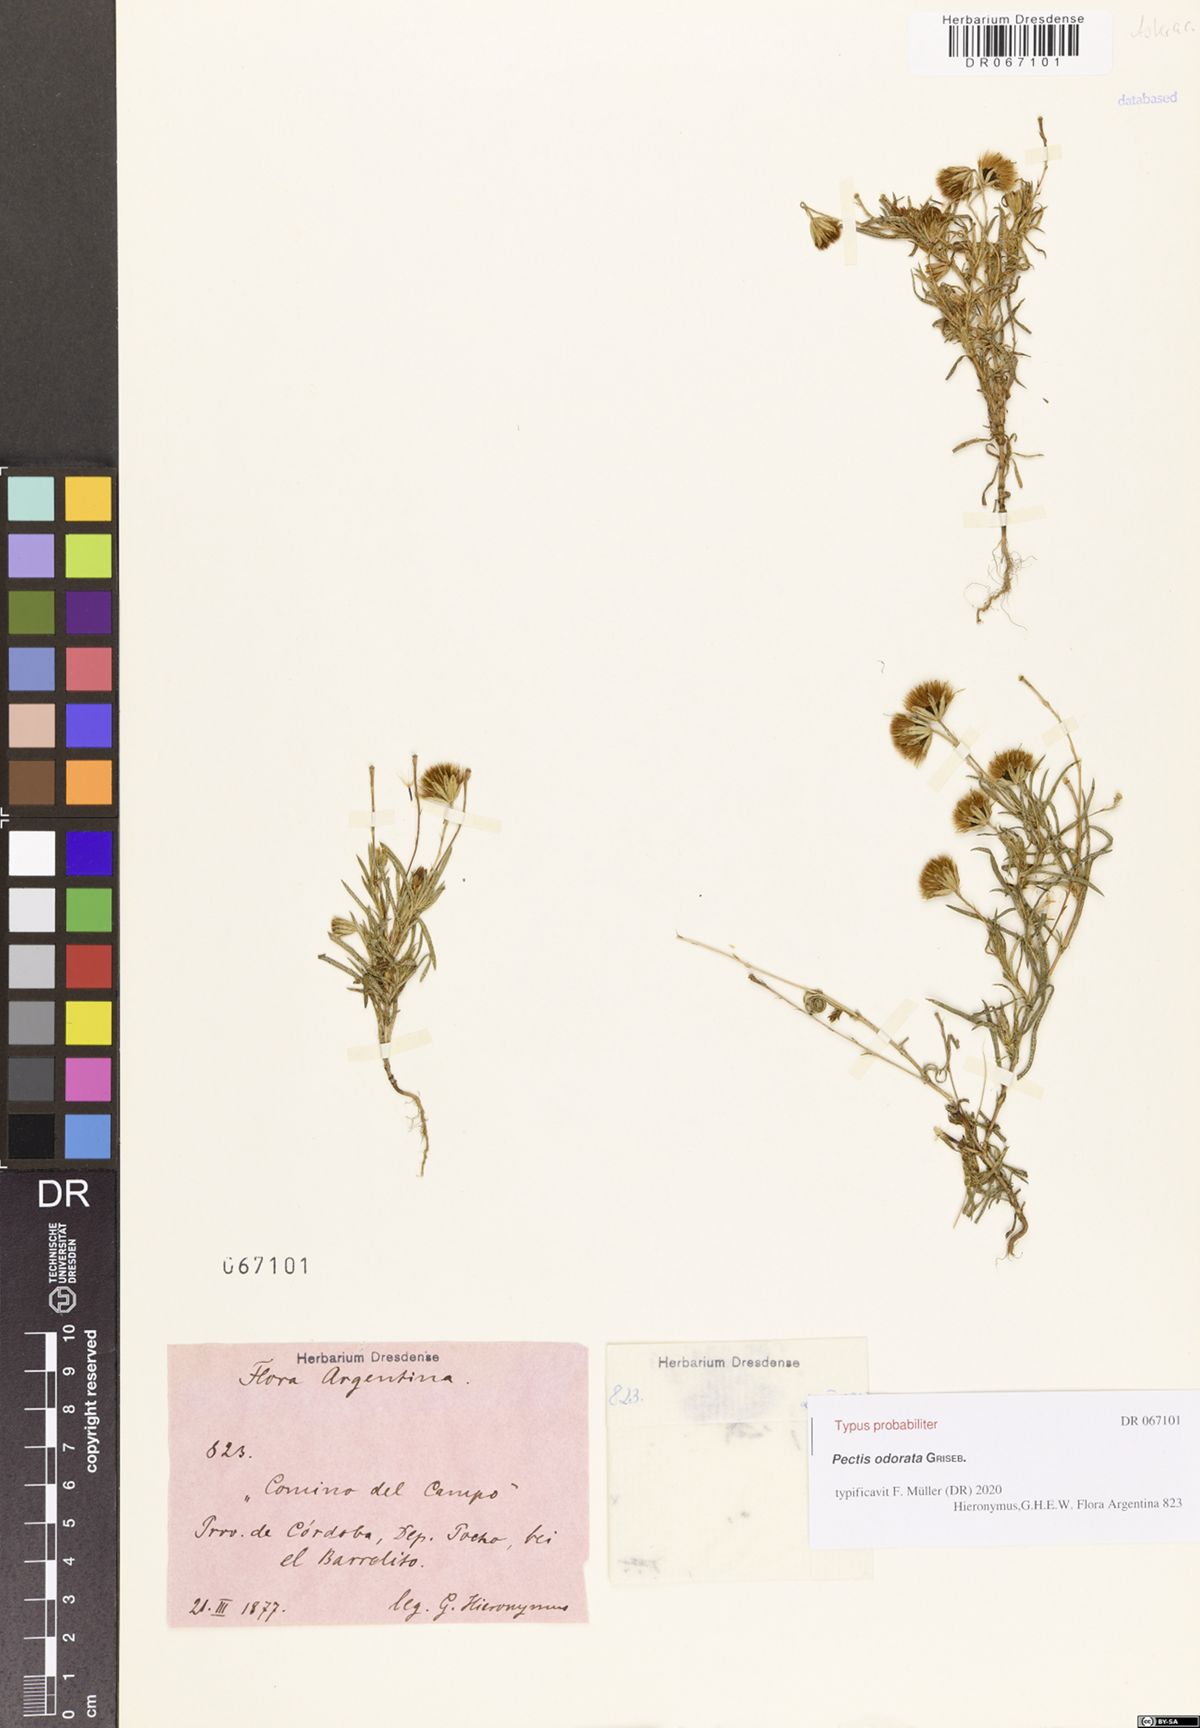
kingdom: Plantae
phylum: Tracheophyta
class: Magnoliopsida
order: Asterales
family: Asteraceae
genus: Pectis
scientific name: Pectis odorata
